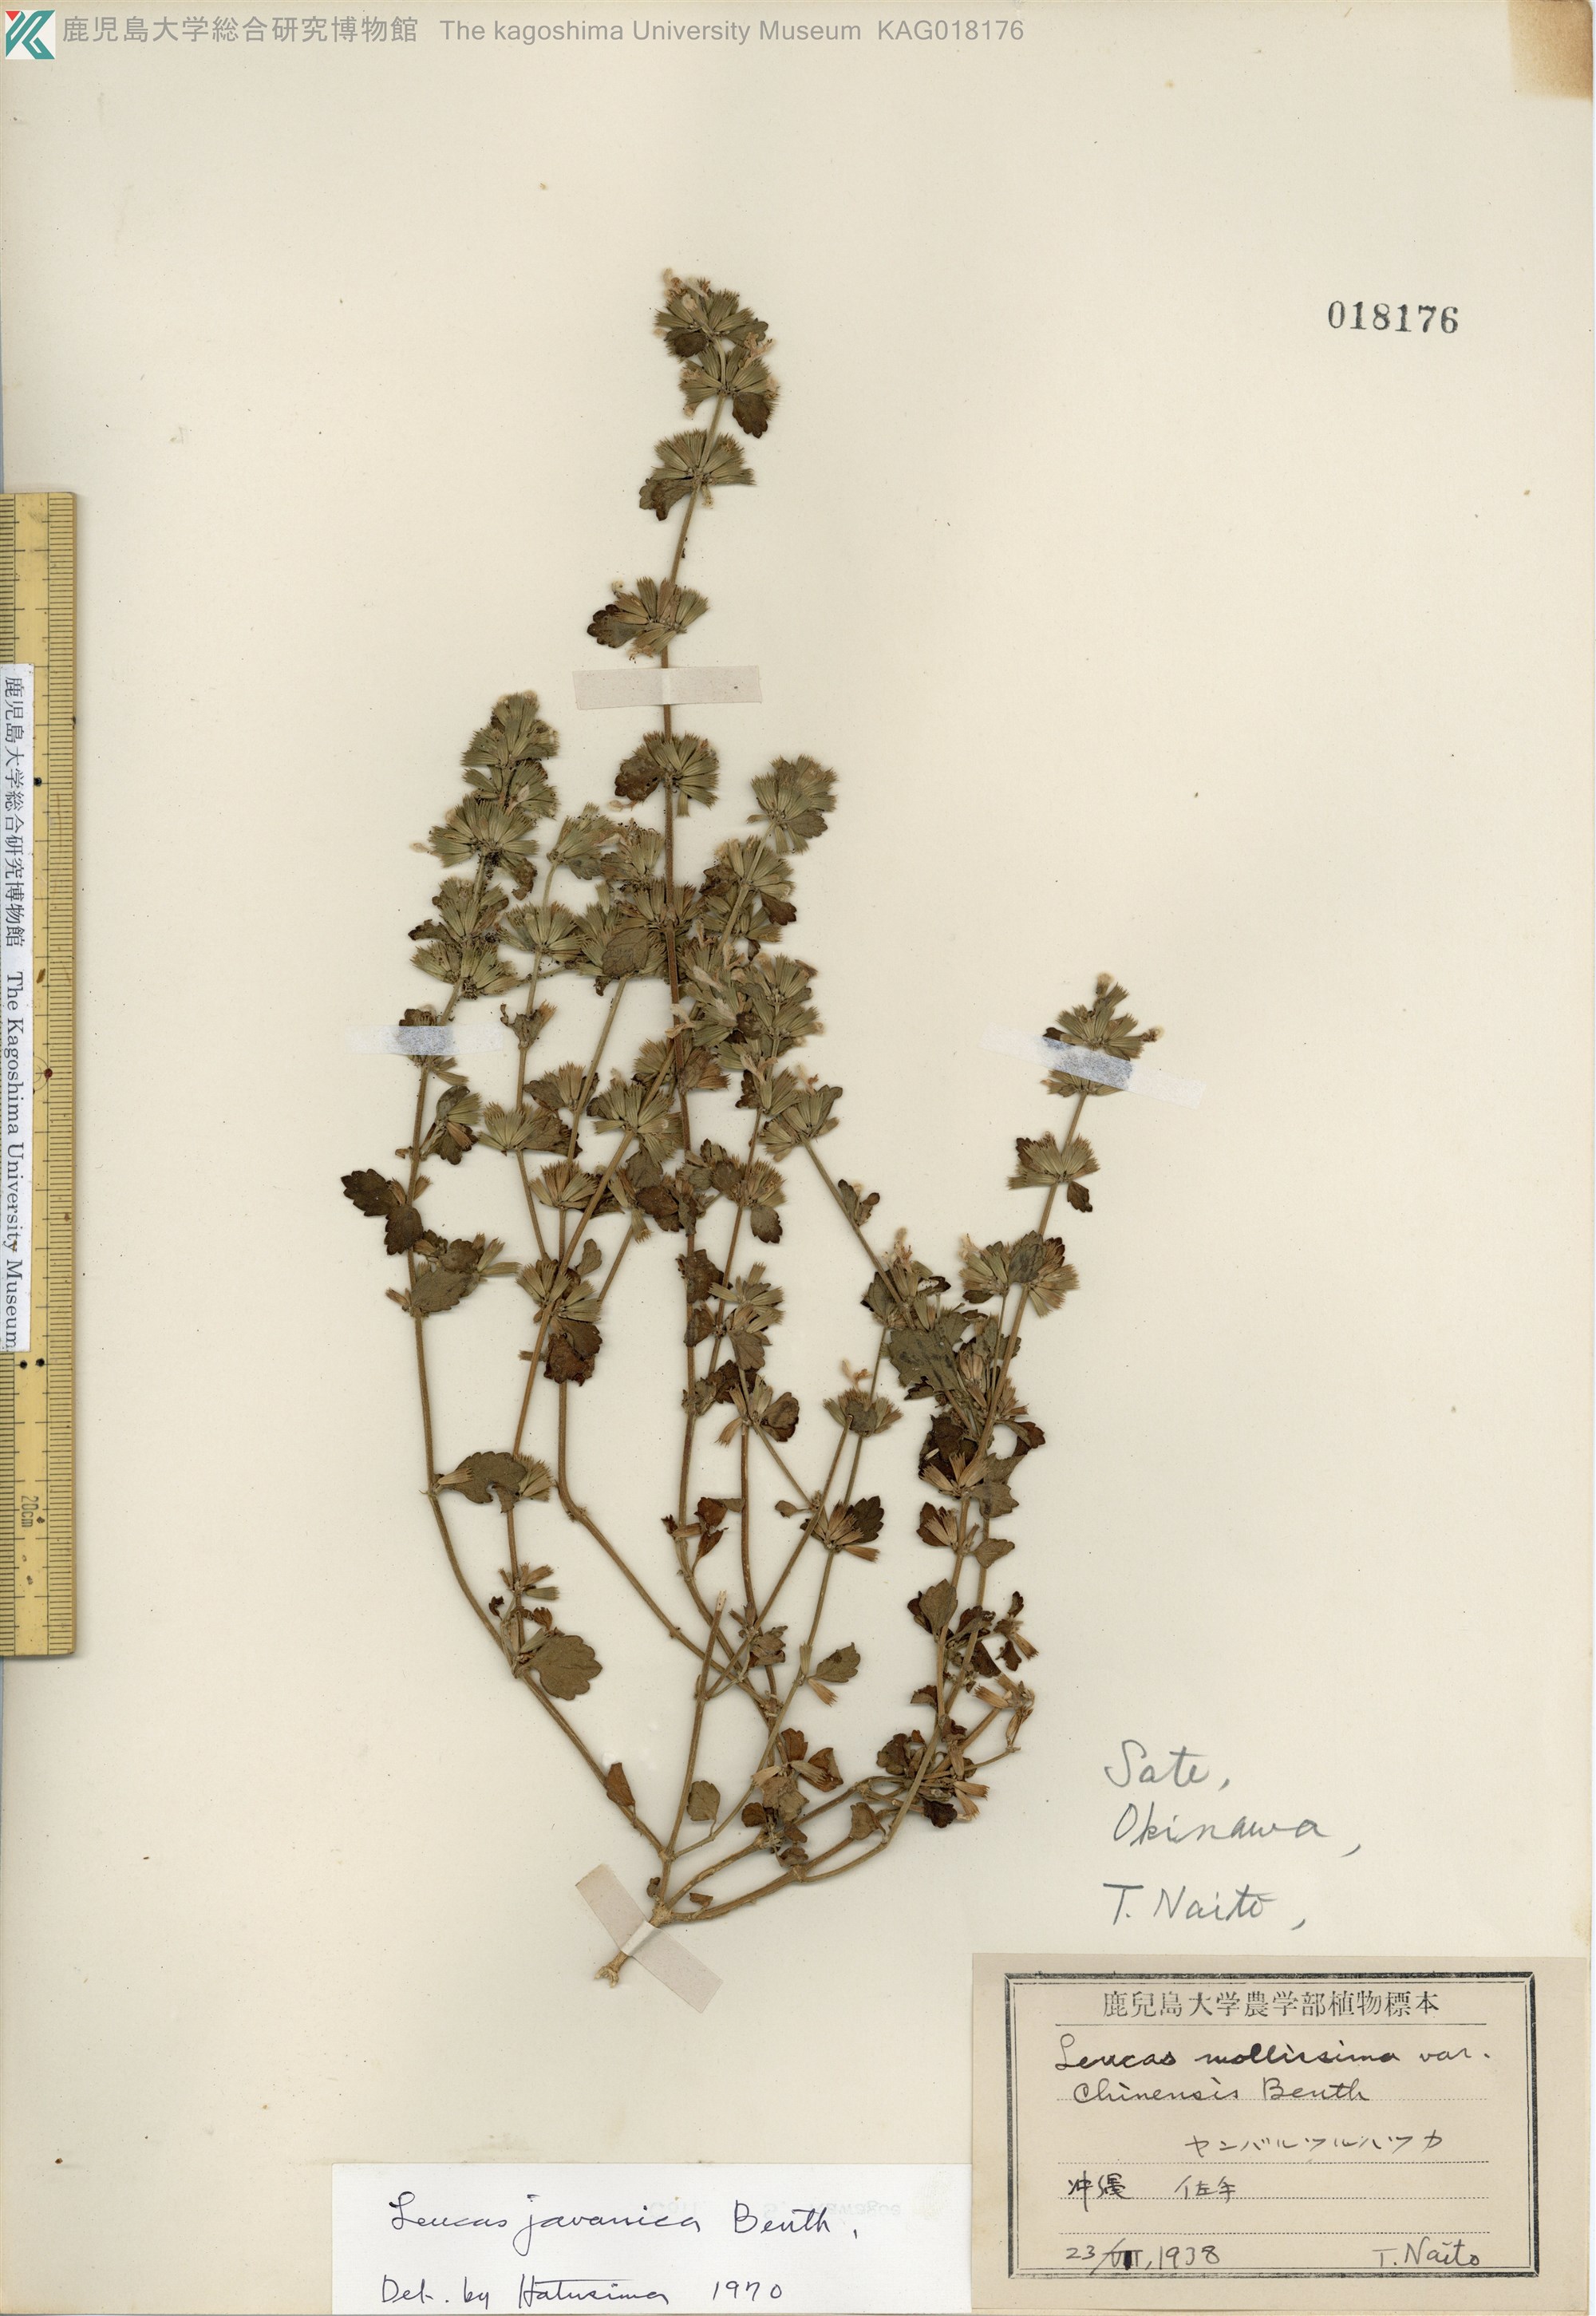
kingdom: Plantae
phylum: Tracheophyta
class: Magnoliopsida
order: Lamiales
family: Lamiaceae
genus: Leucas
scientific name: Leucas chinensis
